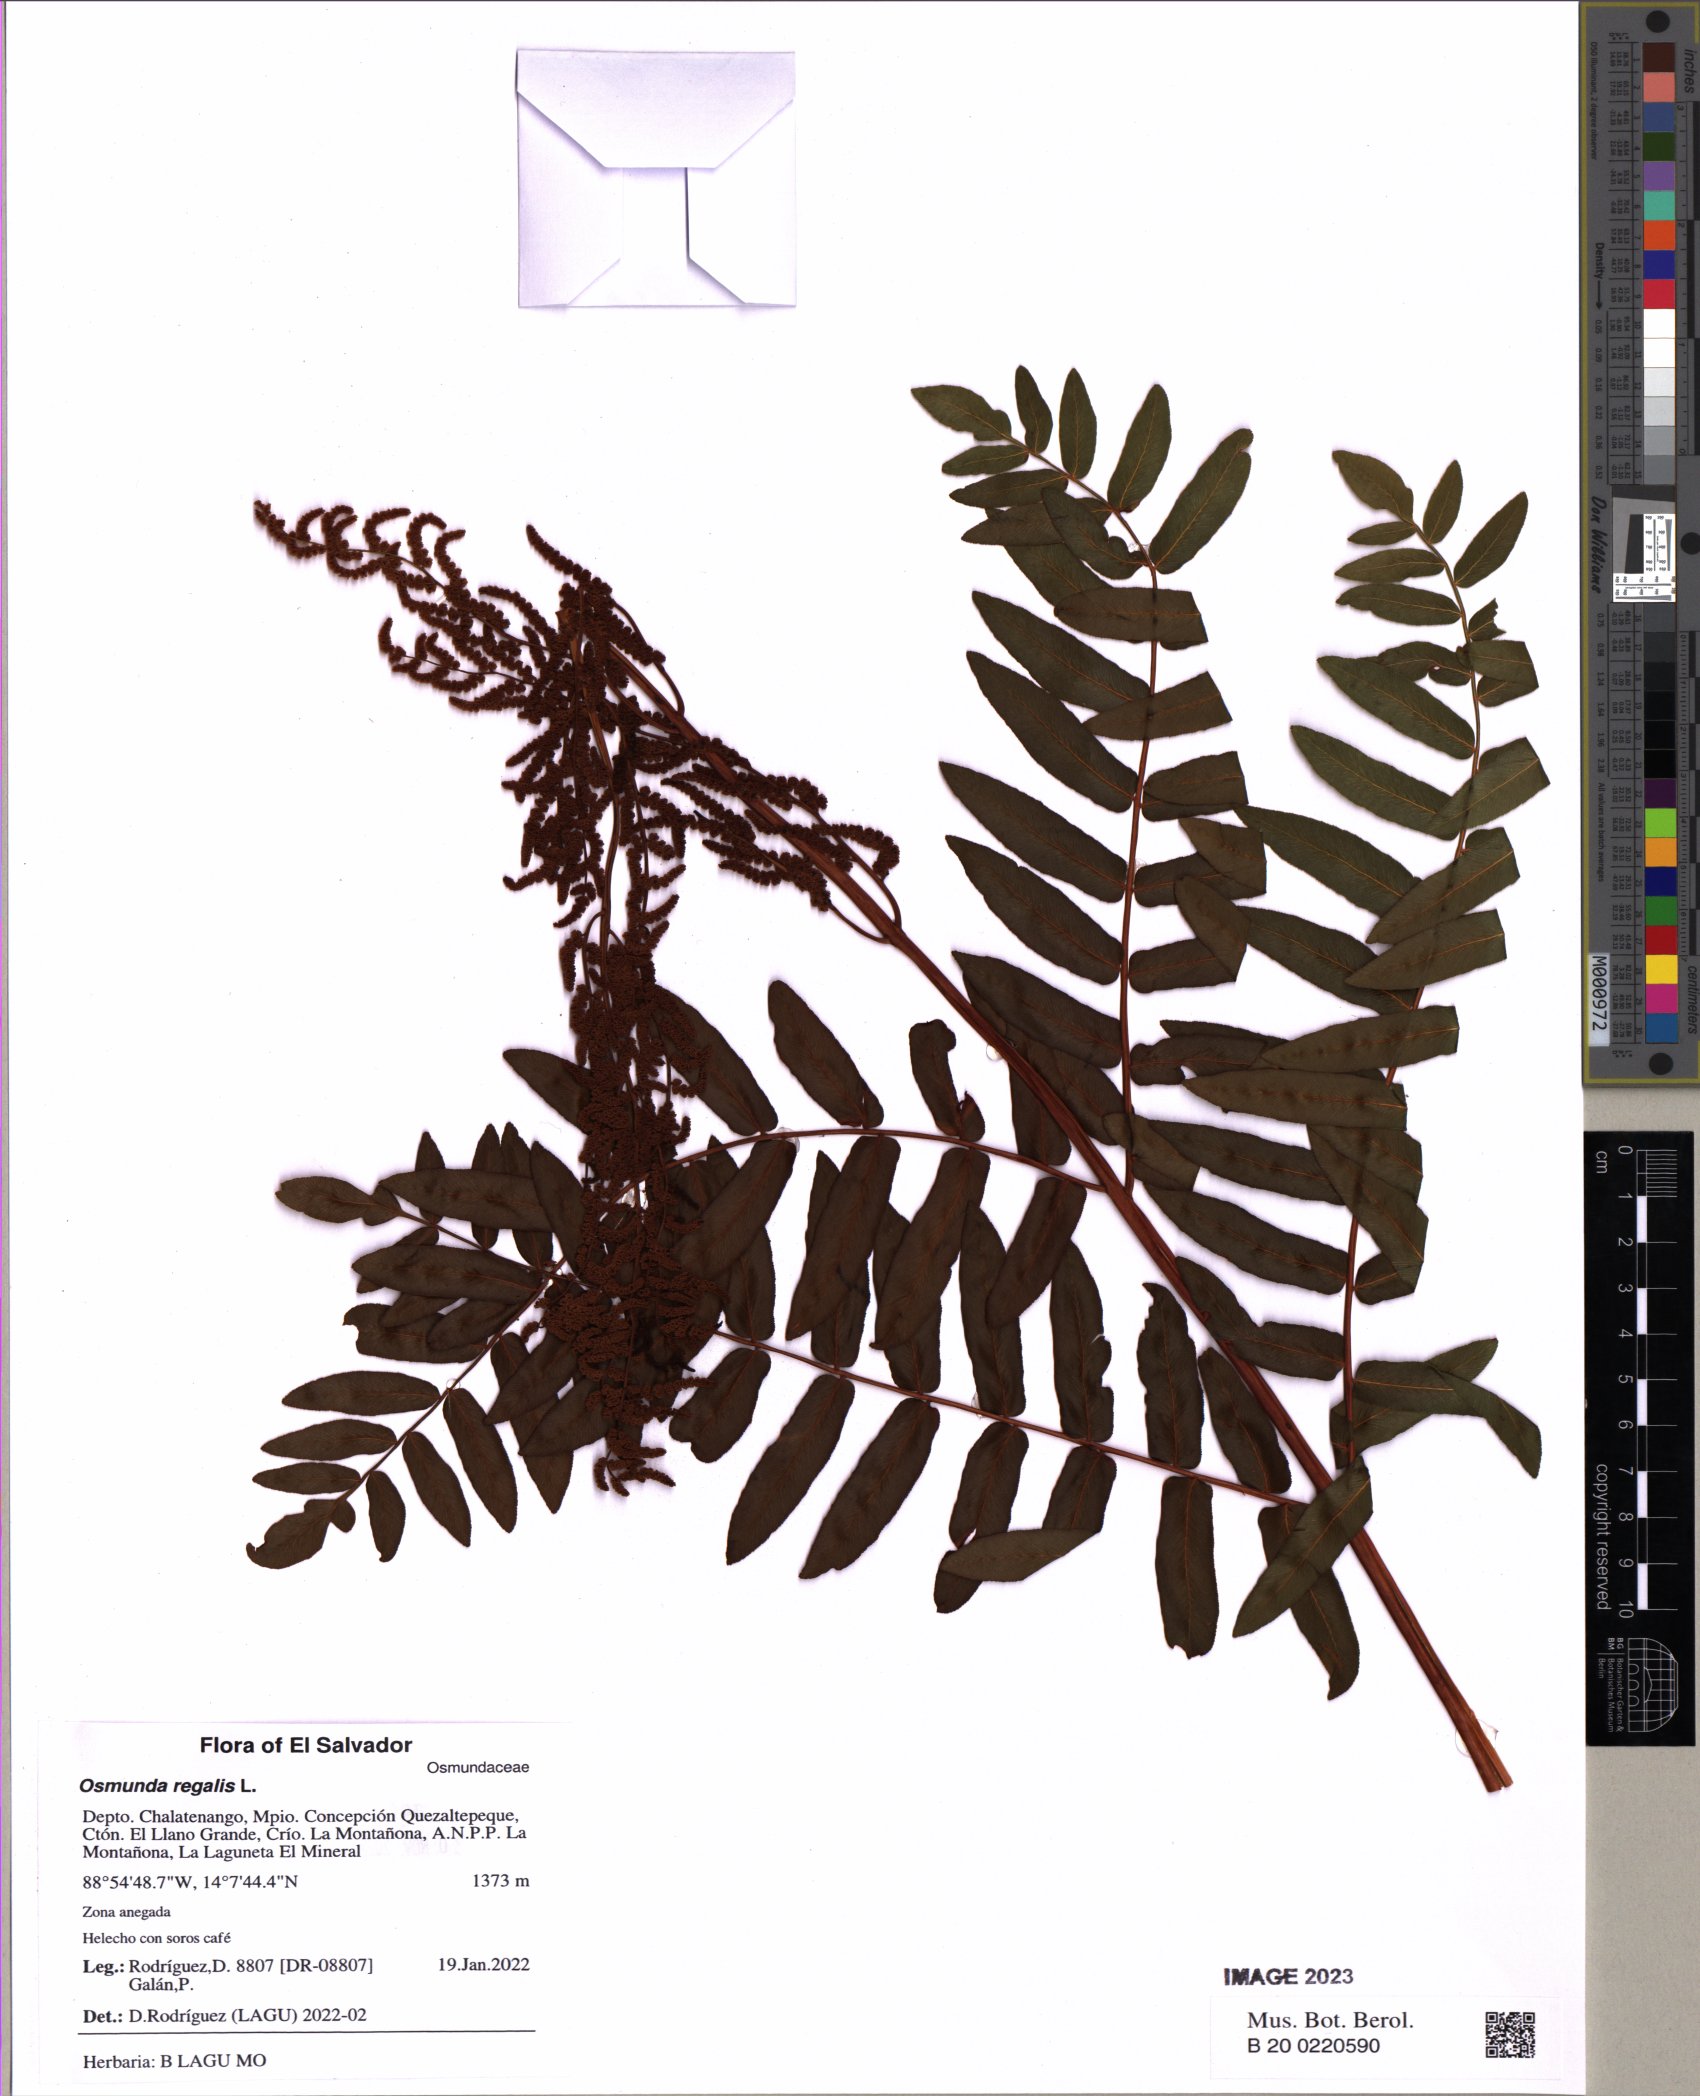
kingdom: Plantae
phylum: Tracheophyta
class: Polypodiopsida
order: Osmundales
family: Osmundaceae
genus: Osmunda
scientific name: Osmunda regalis
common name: Royal fern
